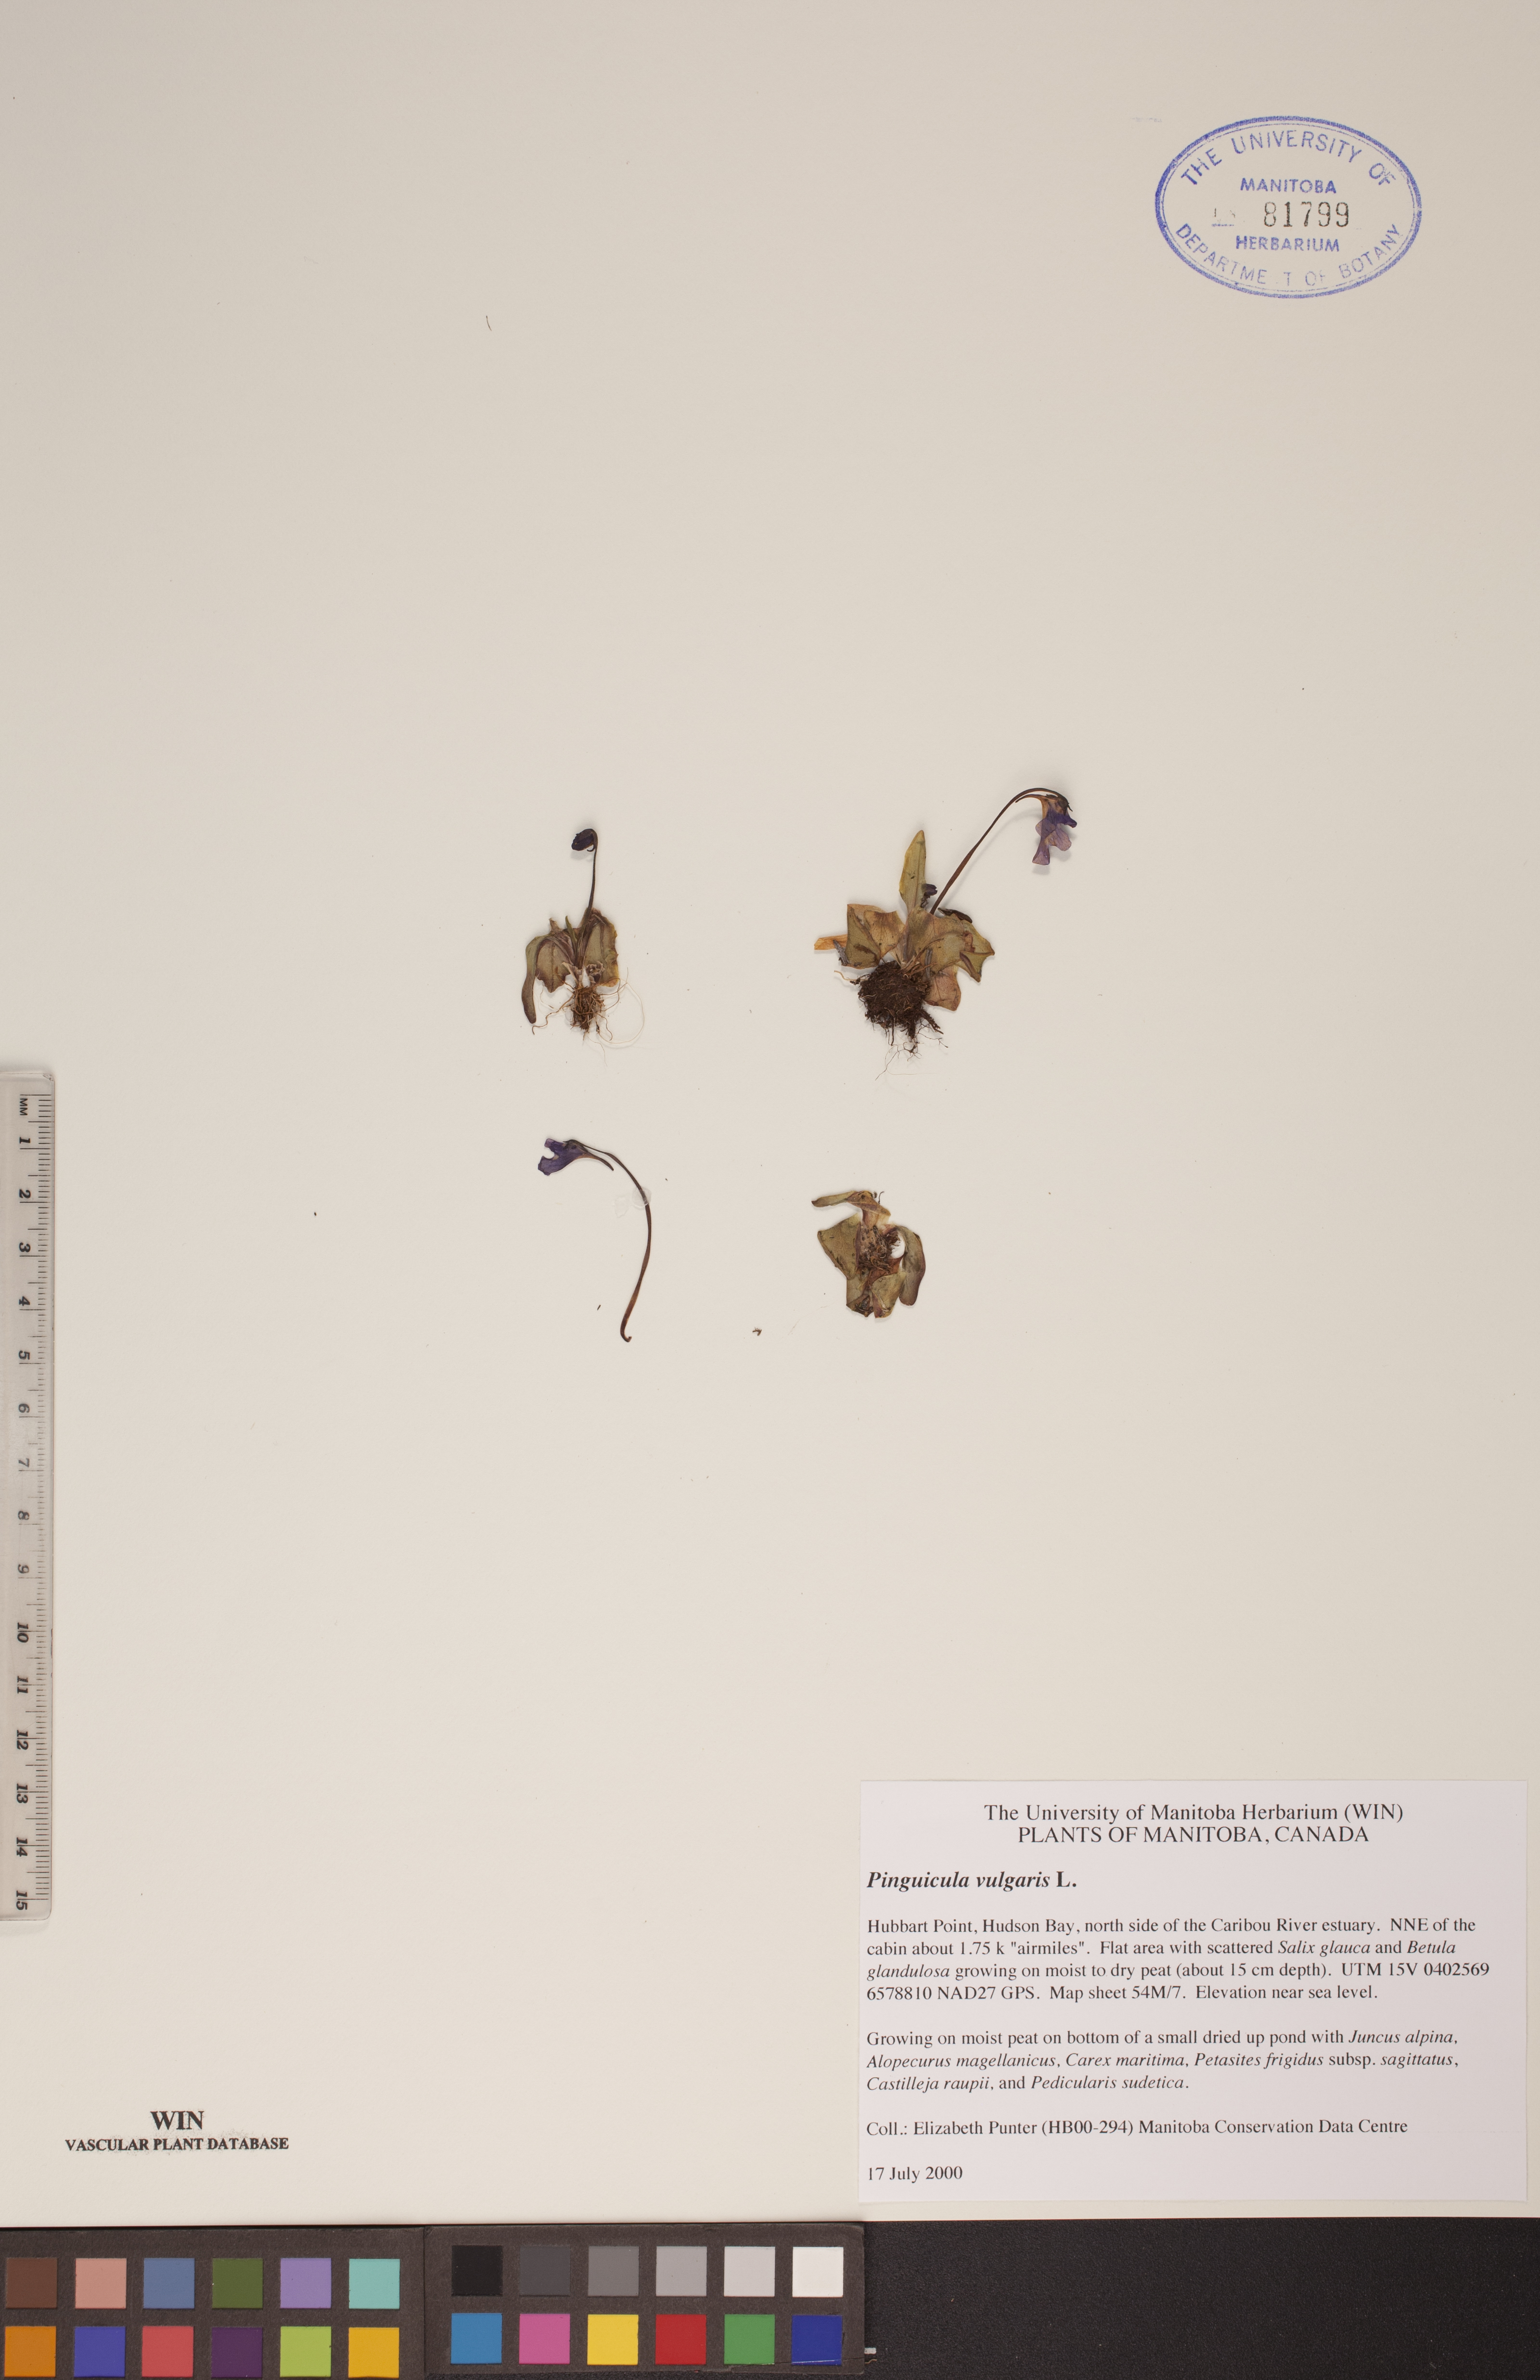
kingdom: Plantae
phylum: Tracheophyta
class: Magnoliopsida
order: Lamiales
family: Lentibulariaceae
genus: Pinguicula
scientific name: Pinguicula vulgaris
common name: Common butterwort
